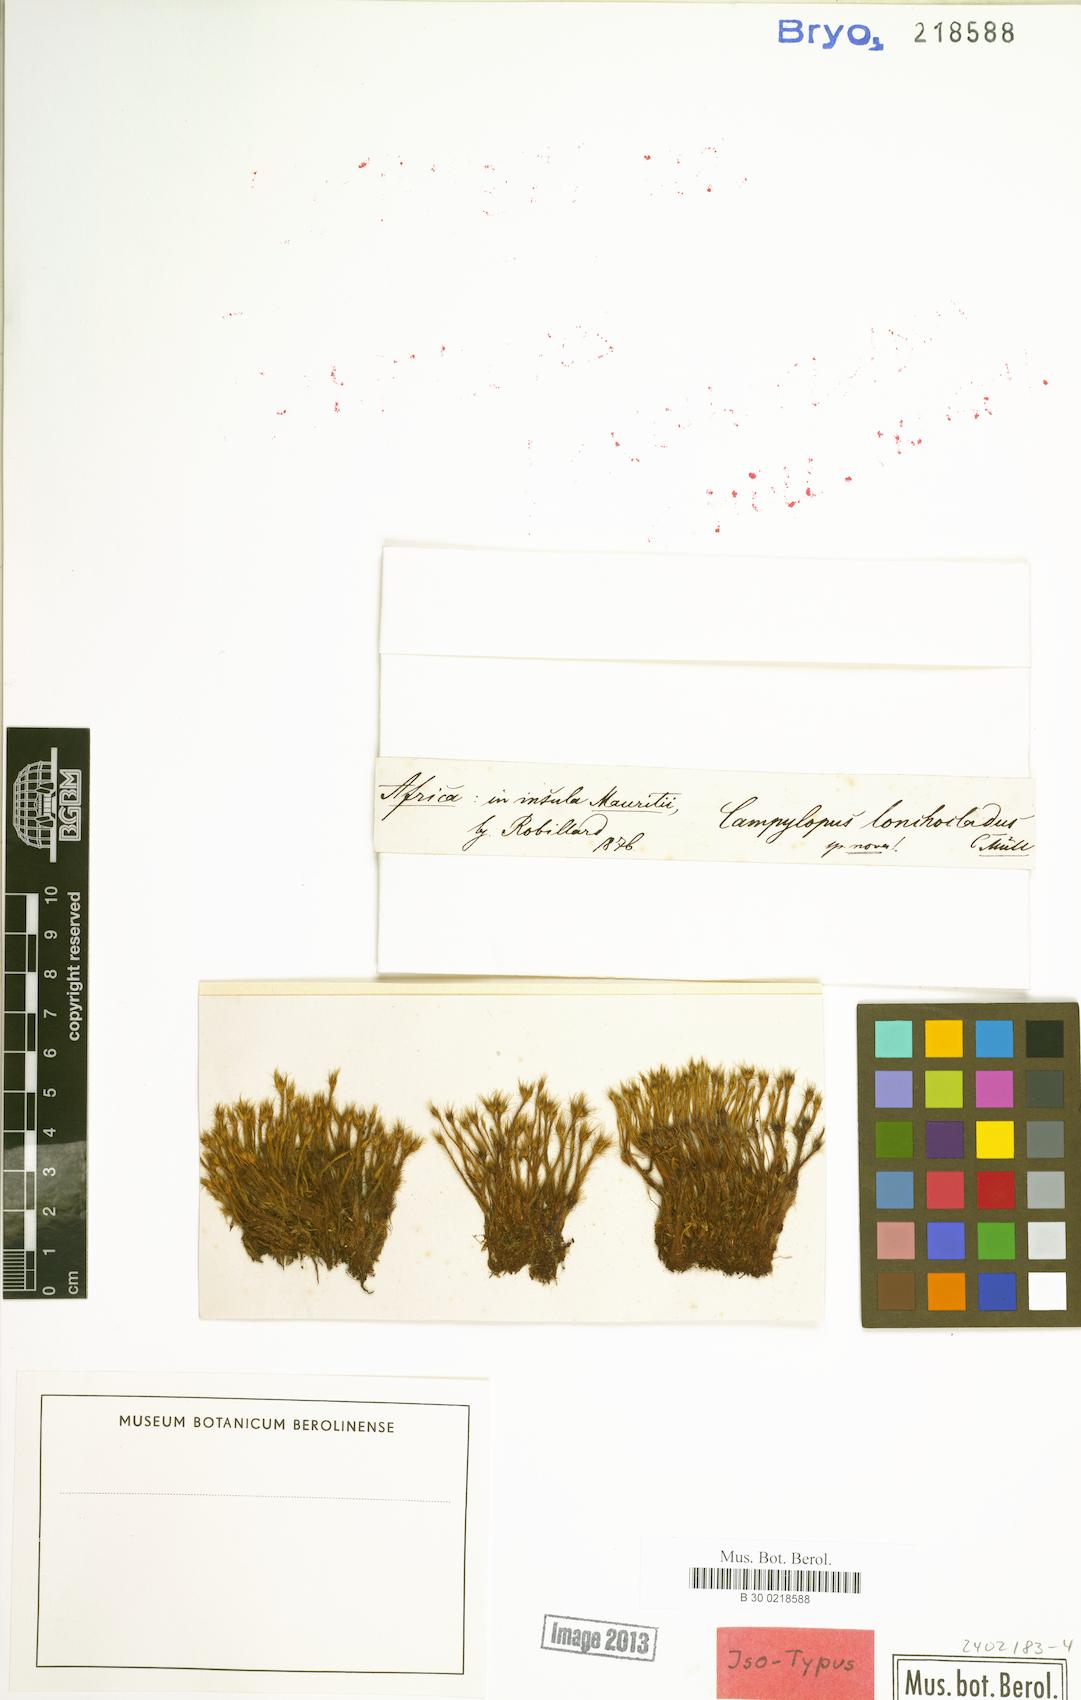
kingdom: Plantae
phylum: Bryophyta
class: Bryopsida
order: Dicranales
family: Leucobryaceae
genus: Campylopus
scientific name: Campylopus aureonitens
